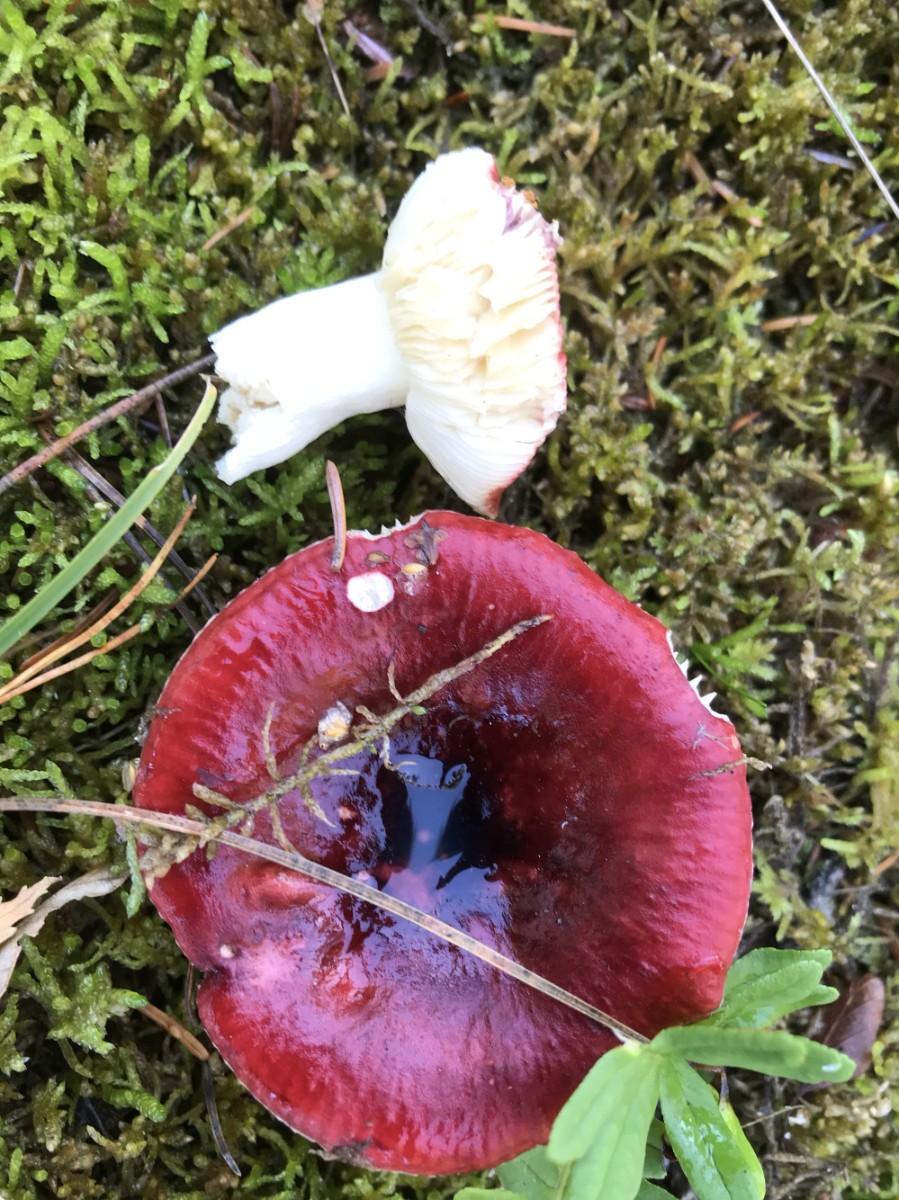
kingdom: Fungi
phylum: Basidiomycota
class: Agaricomycetes
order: Russulales
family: Russulaceae
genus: Russula
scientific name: Russula
